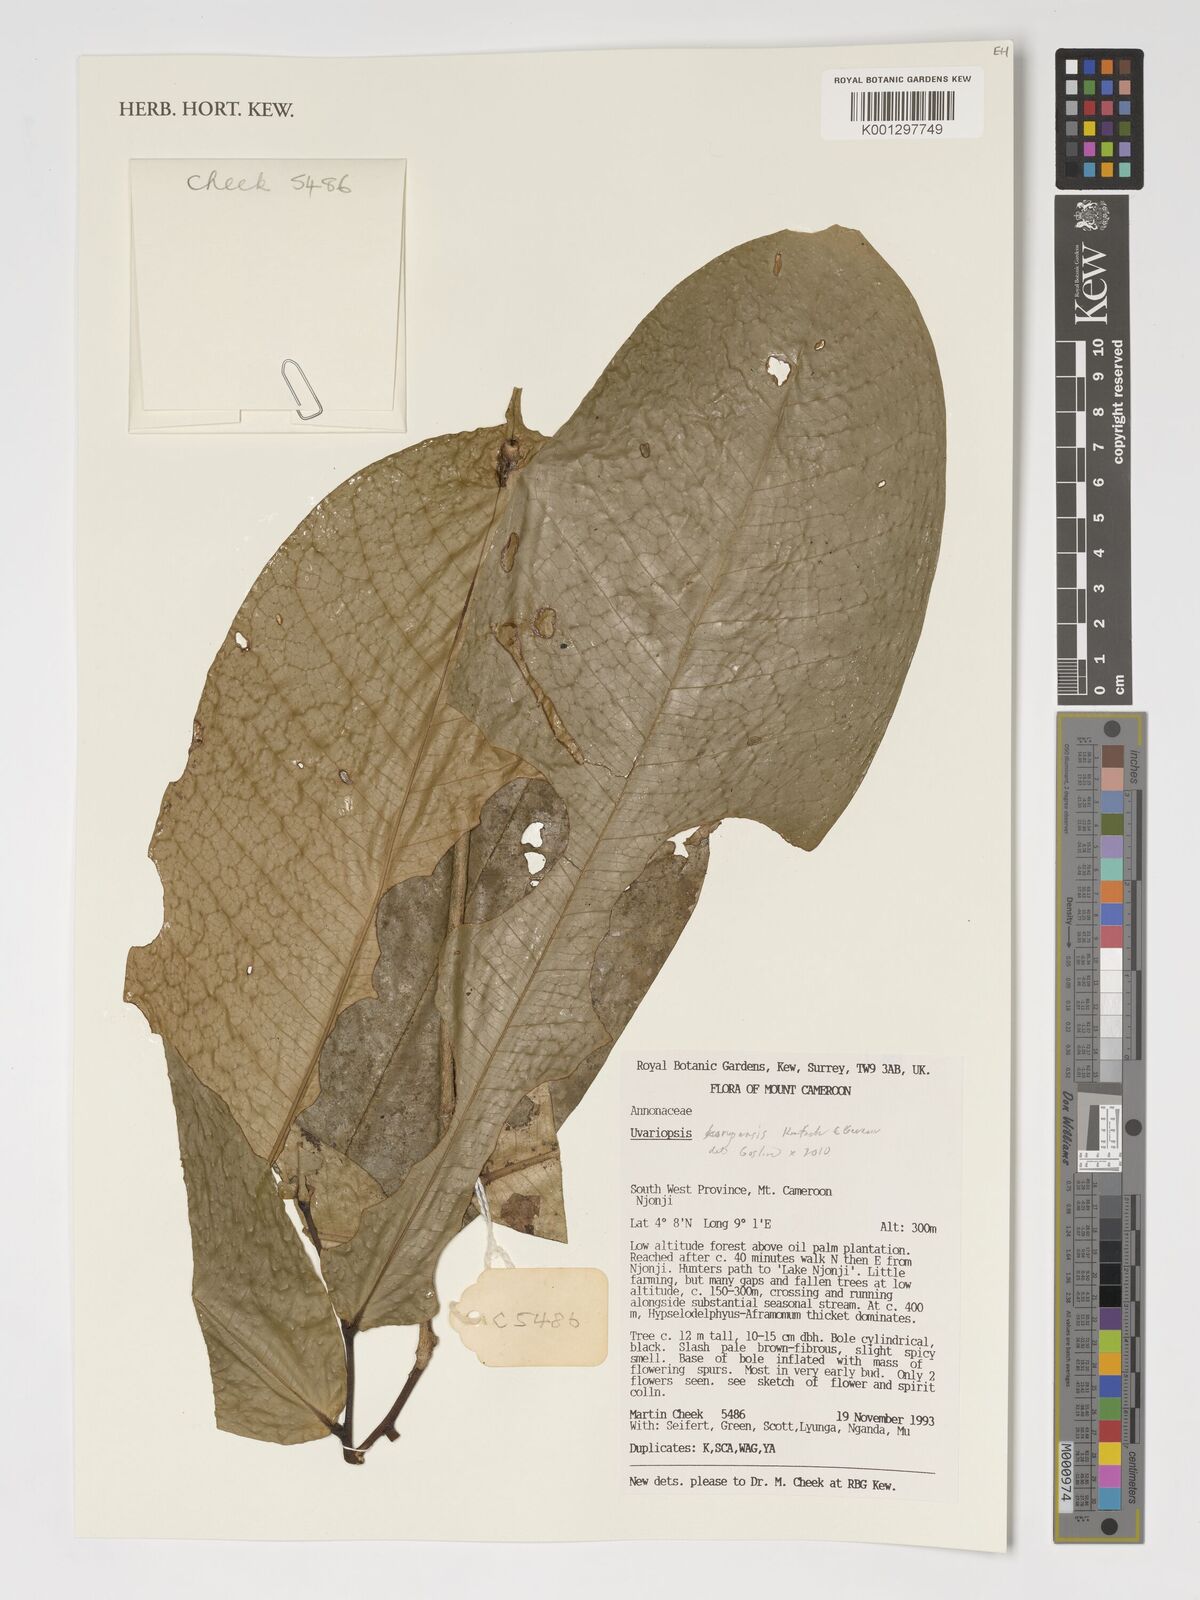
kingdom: Plantae
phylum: Tracheophyta
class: Magnoliopsida
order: Magnoliales
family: Annonaceae
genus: Uvariopsis
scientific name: Uvariopsis korupensis
